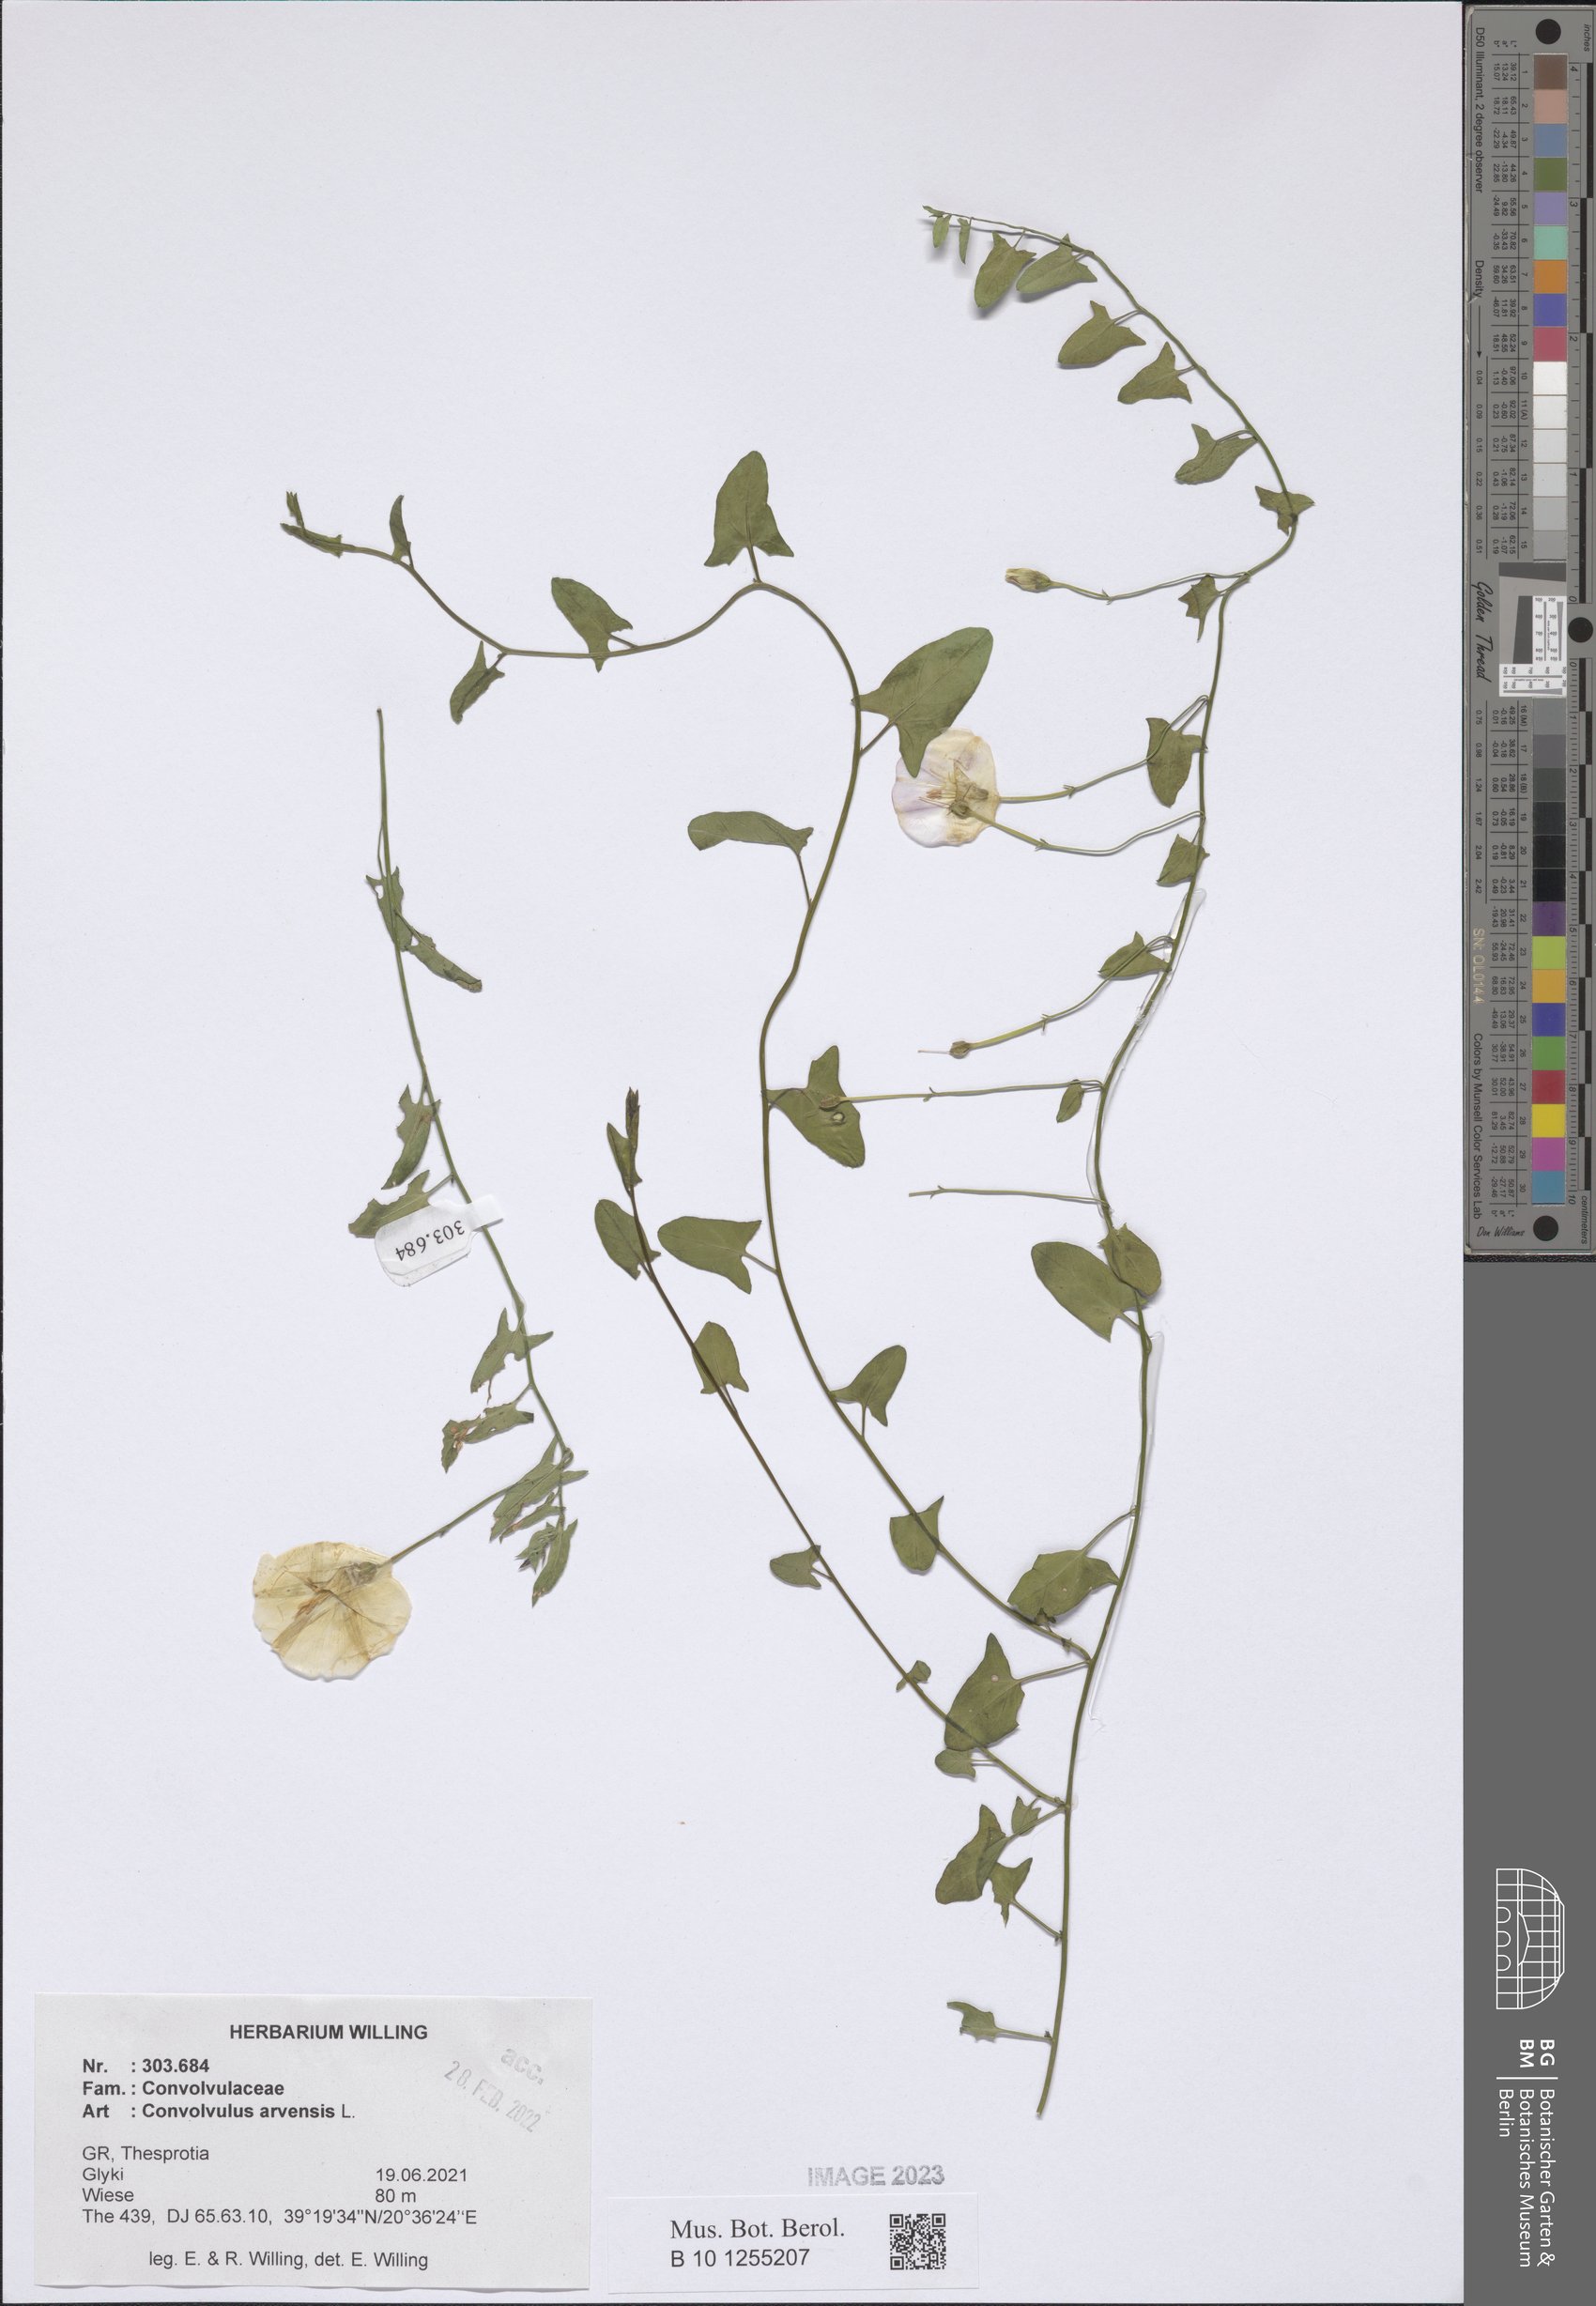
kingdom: Plantae
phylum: Tracheophyta
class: Magnoliopsida
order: Solanales
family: Convolvulaceae
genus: Convolvulus
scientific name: Convolvulus arvensis
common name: Field bindweed
